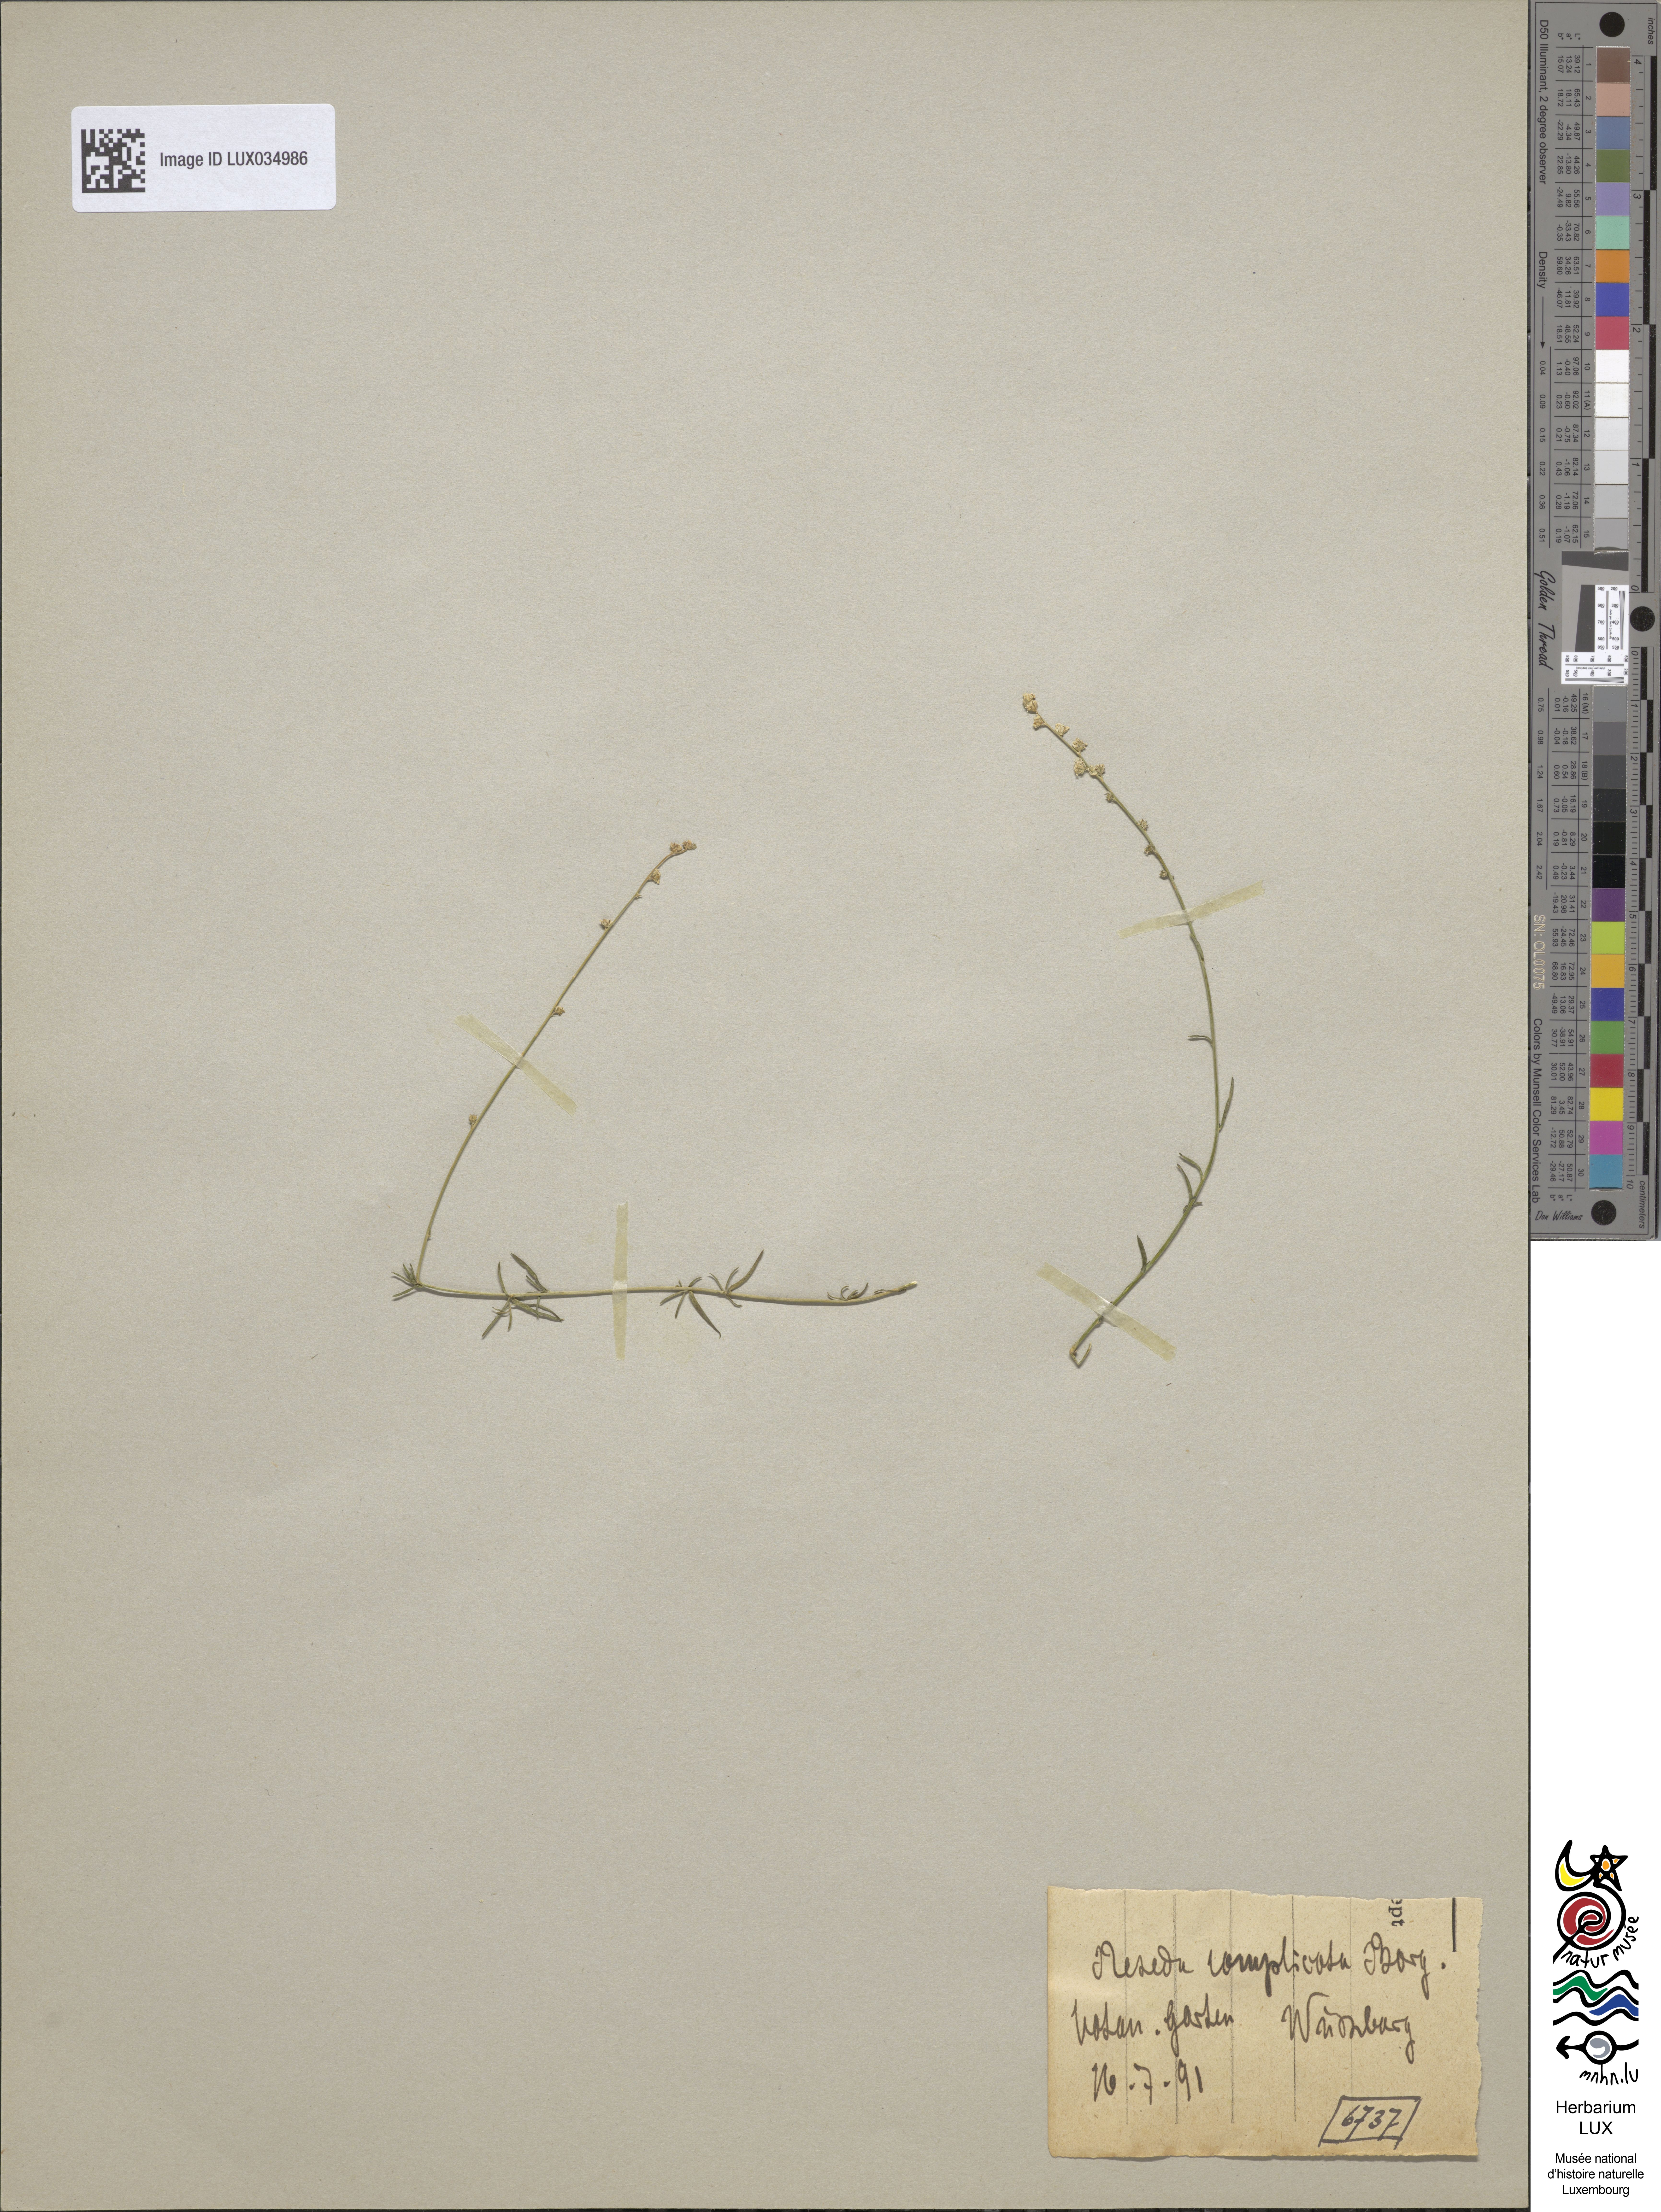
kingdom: Plantae
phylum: Tracheophyta
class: Magnoliopsida
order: Brassicales
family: Resedaceae
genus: Reseda
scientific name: Reseda complicata
